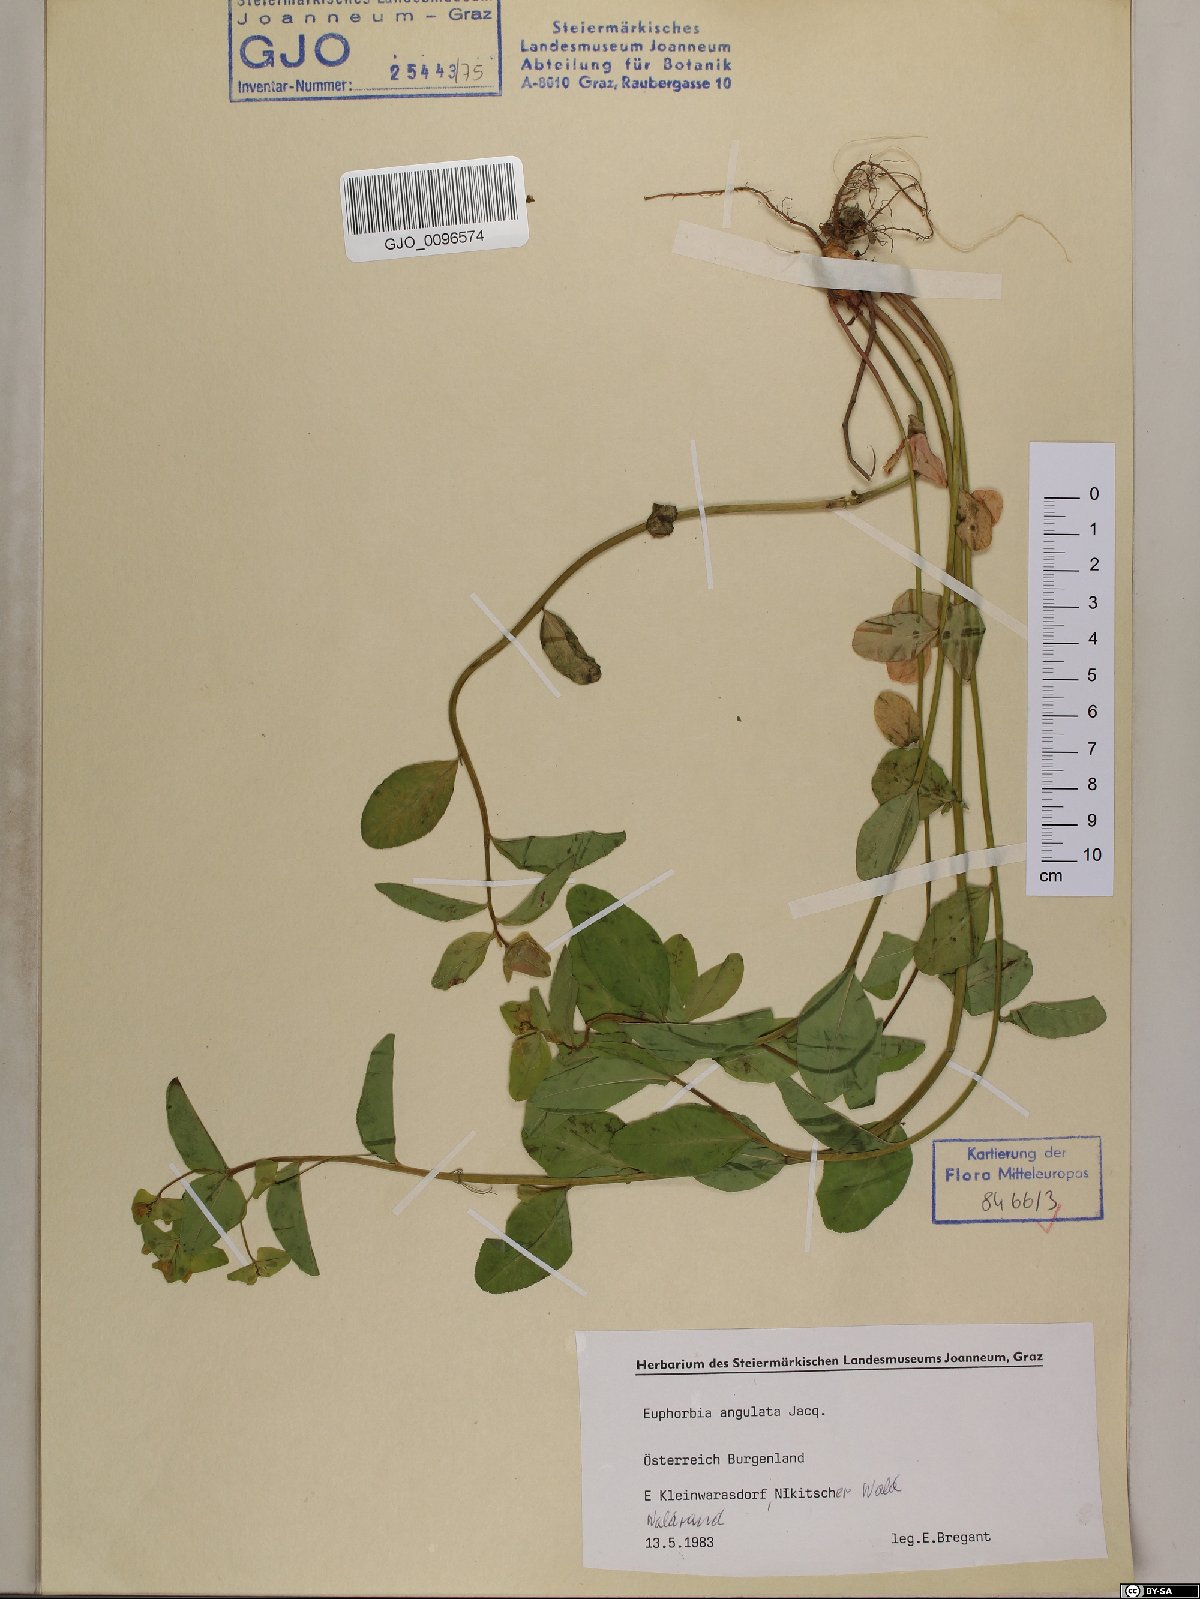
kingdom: Plantae
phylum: Tracheophyta
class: Magnoliopsida
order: Malpighiales
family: Euphorbiaceae
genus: Euphorbia
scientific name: Euphorbia angulata
